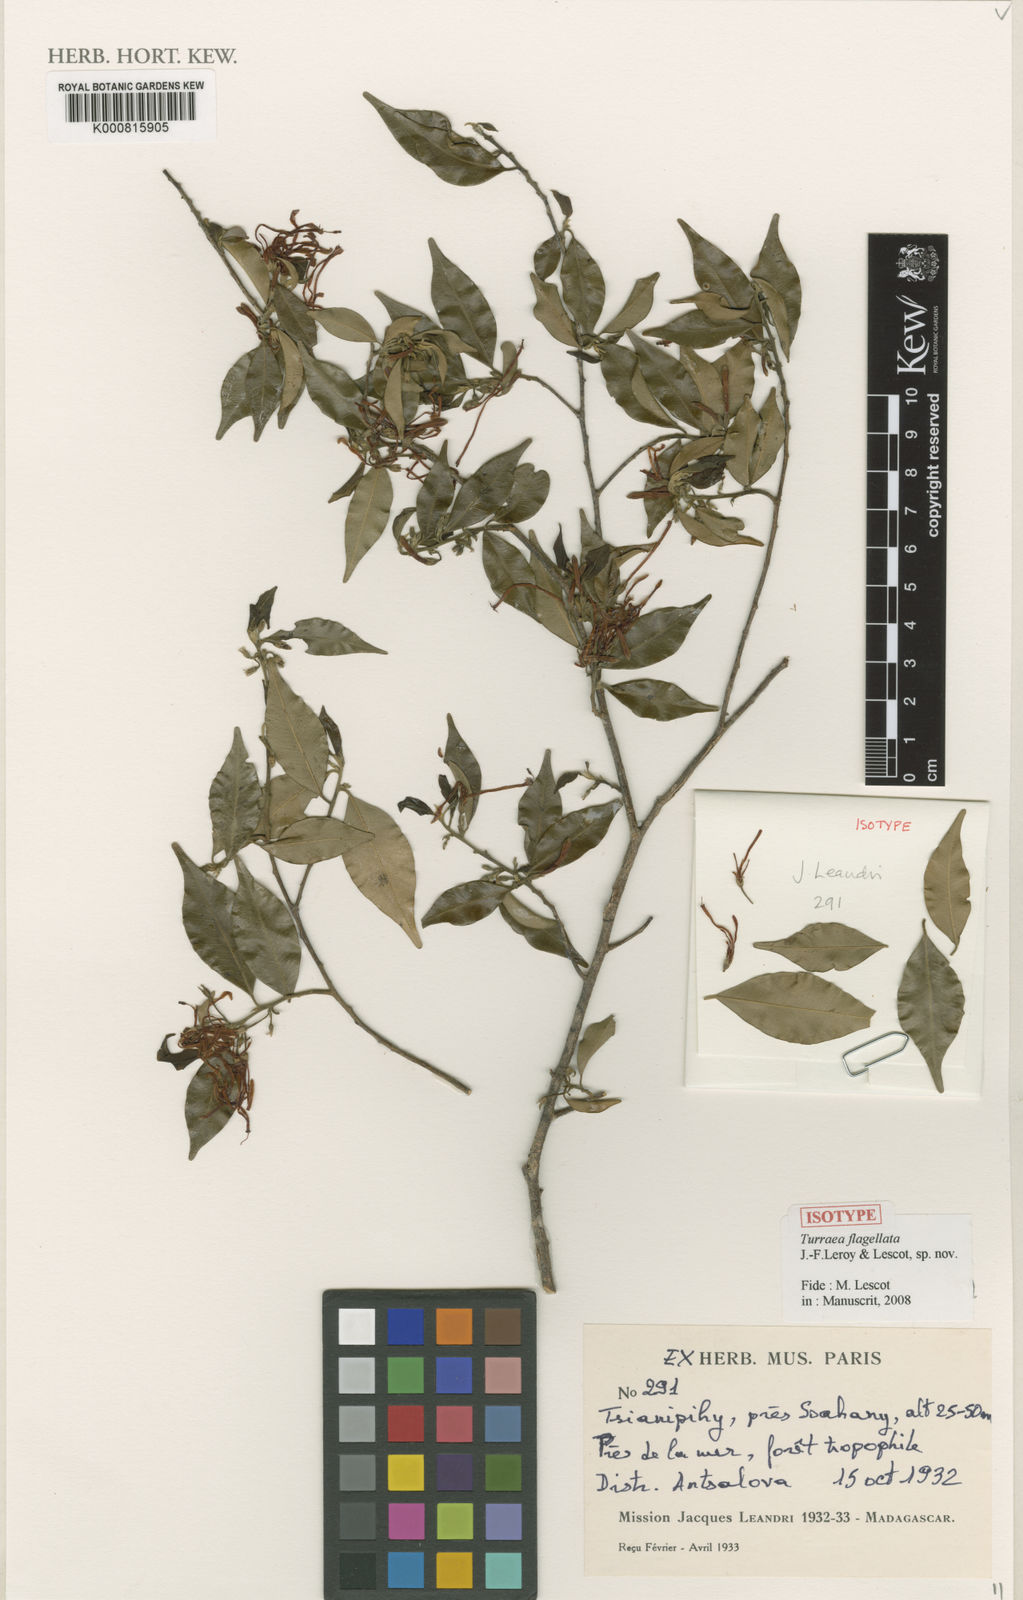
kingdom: Plantae
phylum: Tracheophyta
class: Magnoliopsida
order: Sapindales
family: Meliaceae
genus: Turraea
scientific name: Turraea
